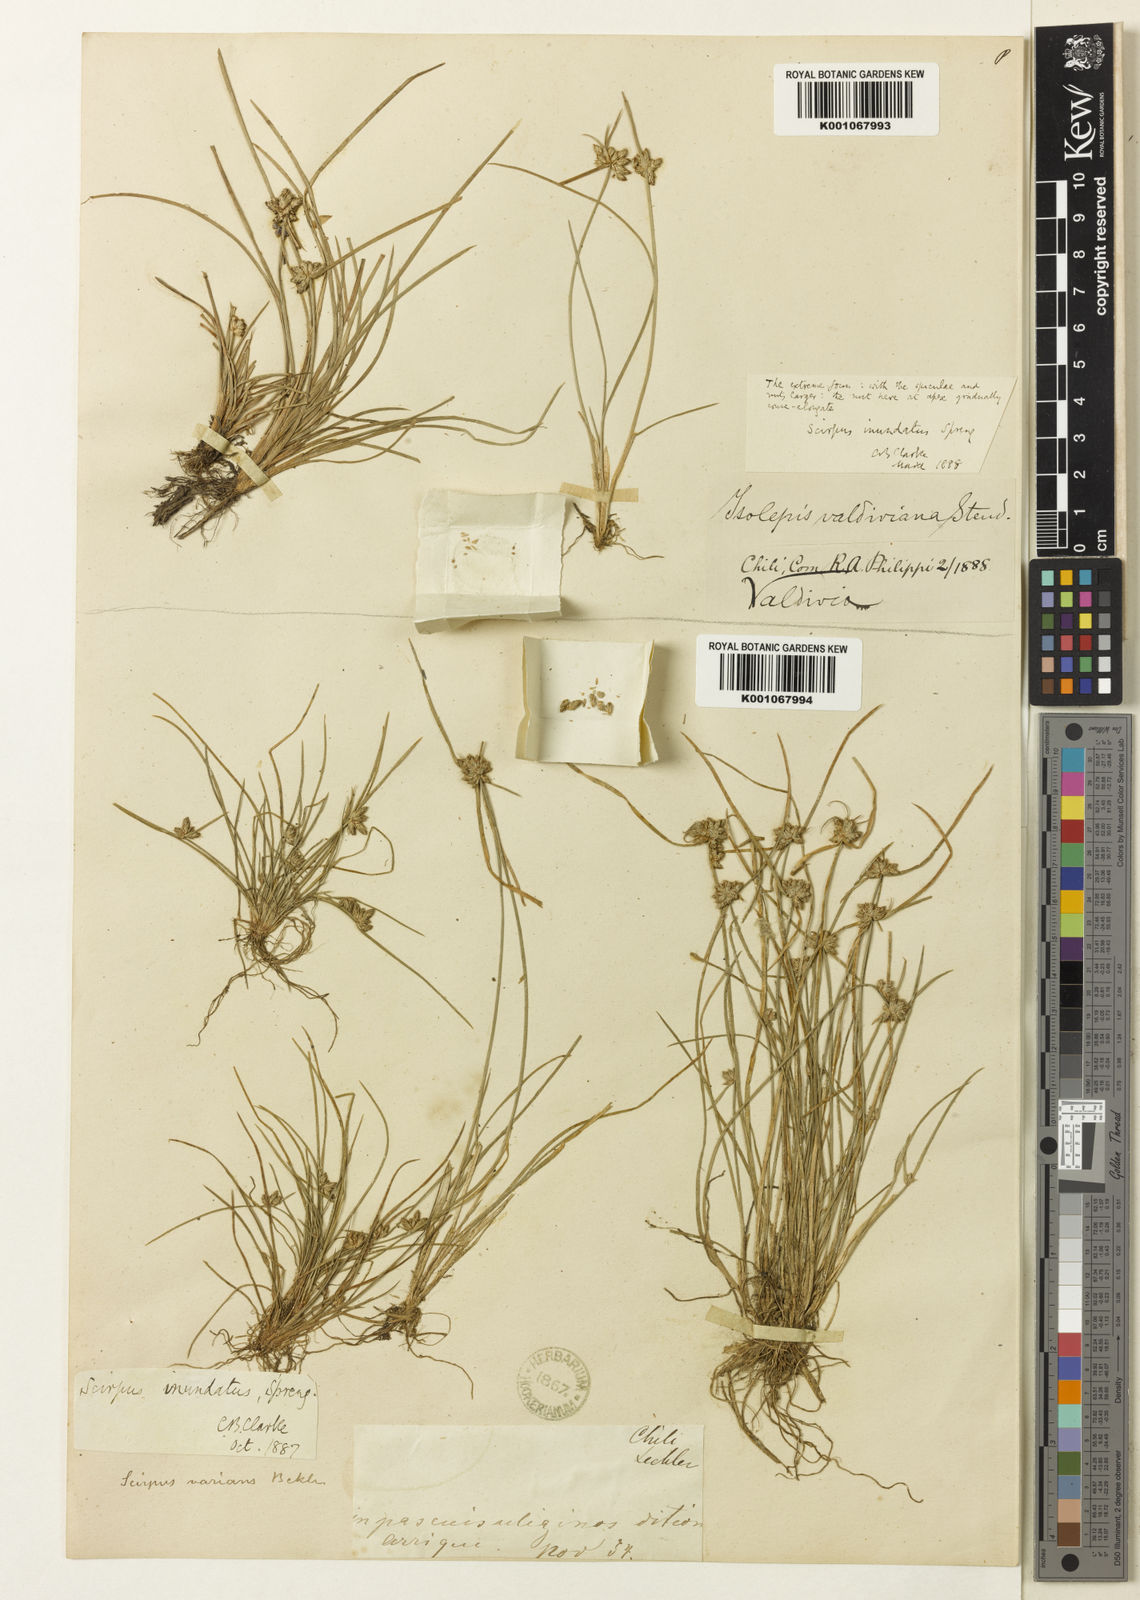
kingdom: Plantae
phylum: Tracheophyta
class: Liliopsida
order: Poales
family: Cyperaceae
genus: Isolepis
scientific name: Isolepis inundata
